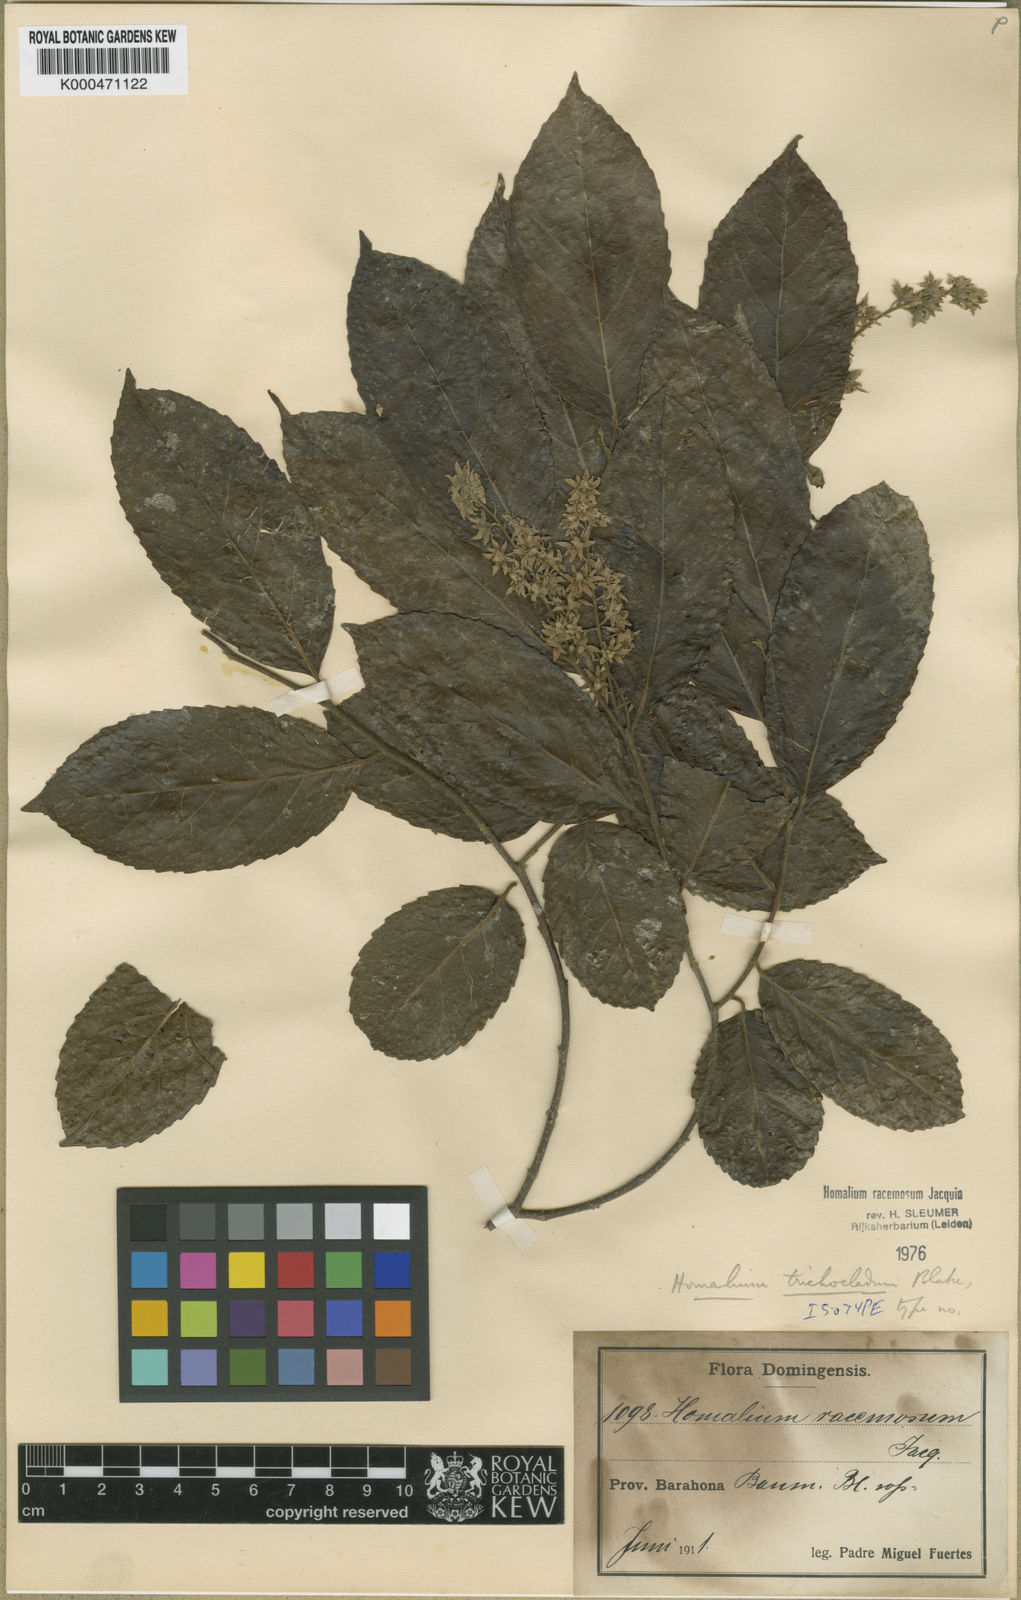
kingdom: Plantae
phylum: Tracheophyta
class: Magnoliopsida
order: Malpighiales
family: Salicaceae
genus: Homalium
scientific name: Homalium racemosum
